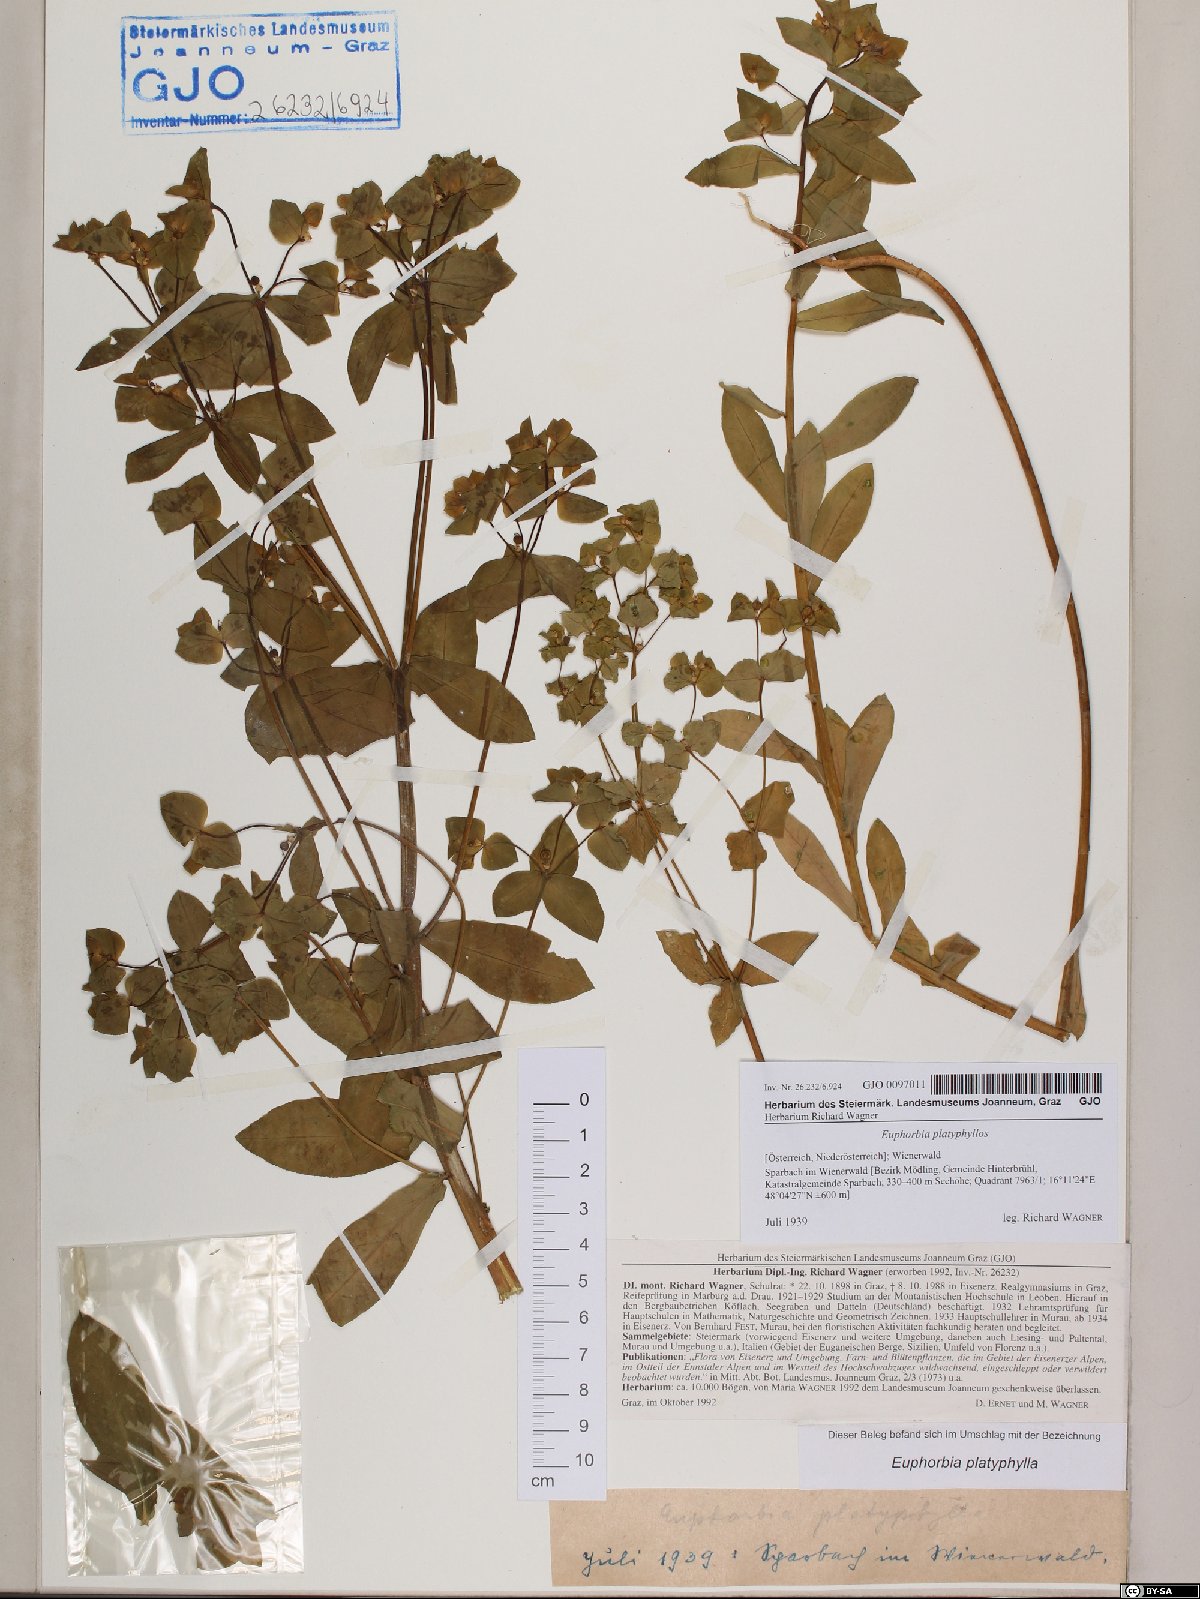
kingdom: Plantae
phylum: Tracheophyta
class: Magnoliopsida
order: Malpighiales
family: Euphorbiaceae
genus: Euphorbia
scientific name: Euphorbia platyphyllos
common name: Broad-leaved spurge
